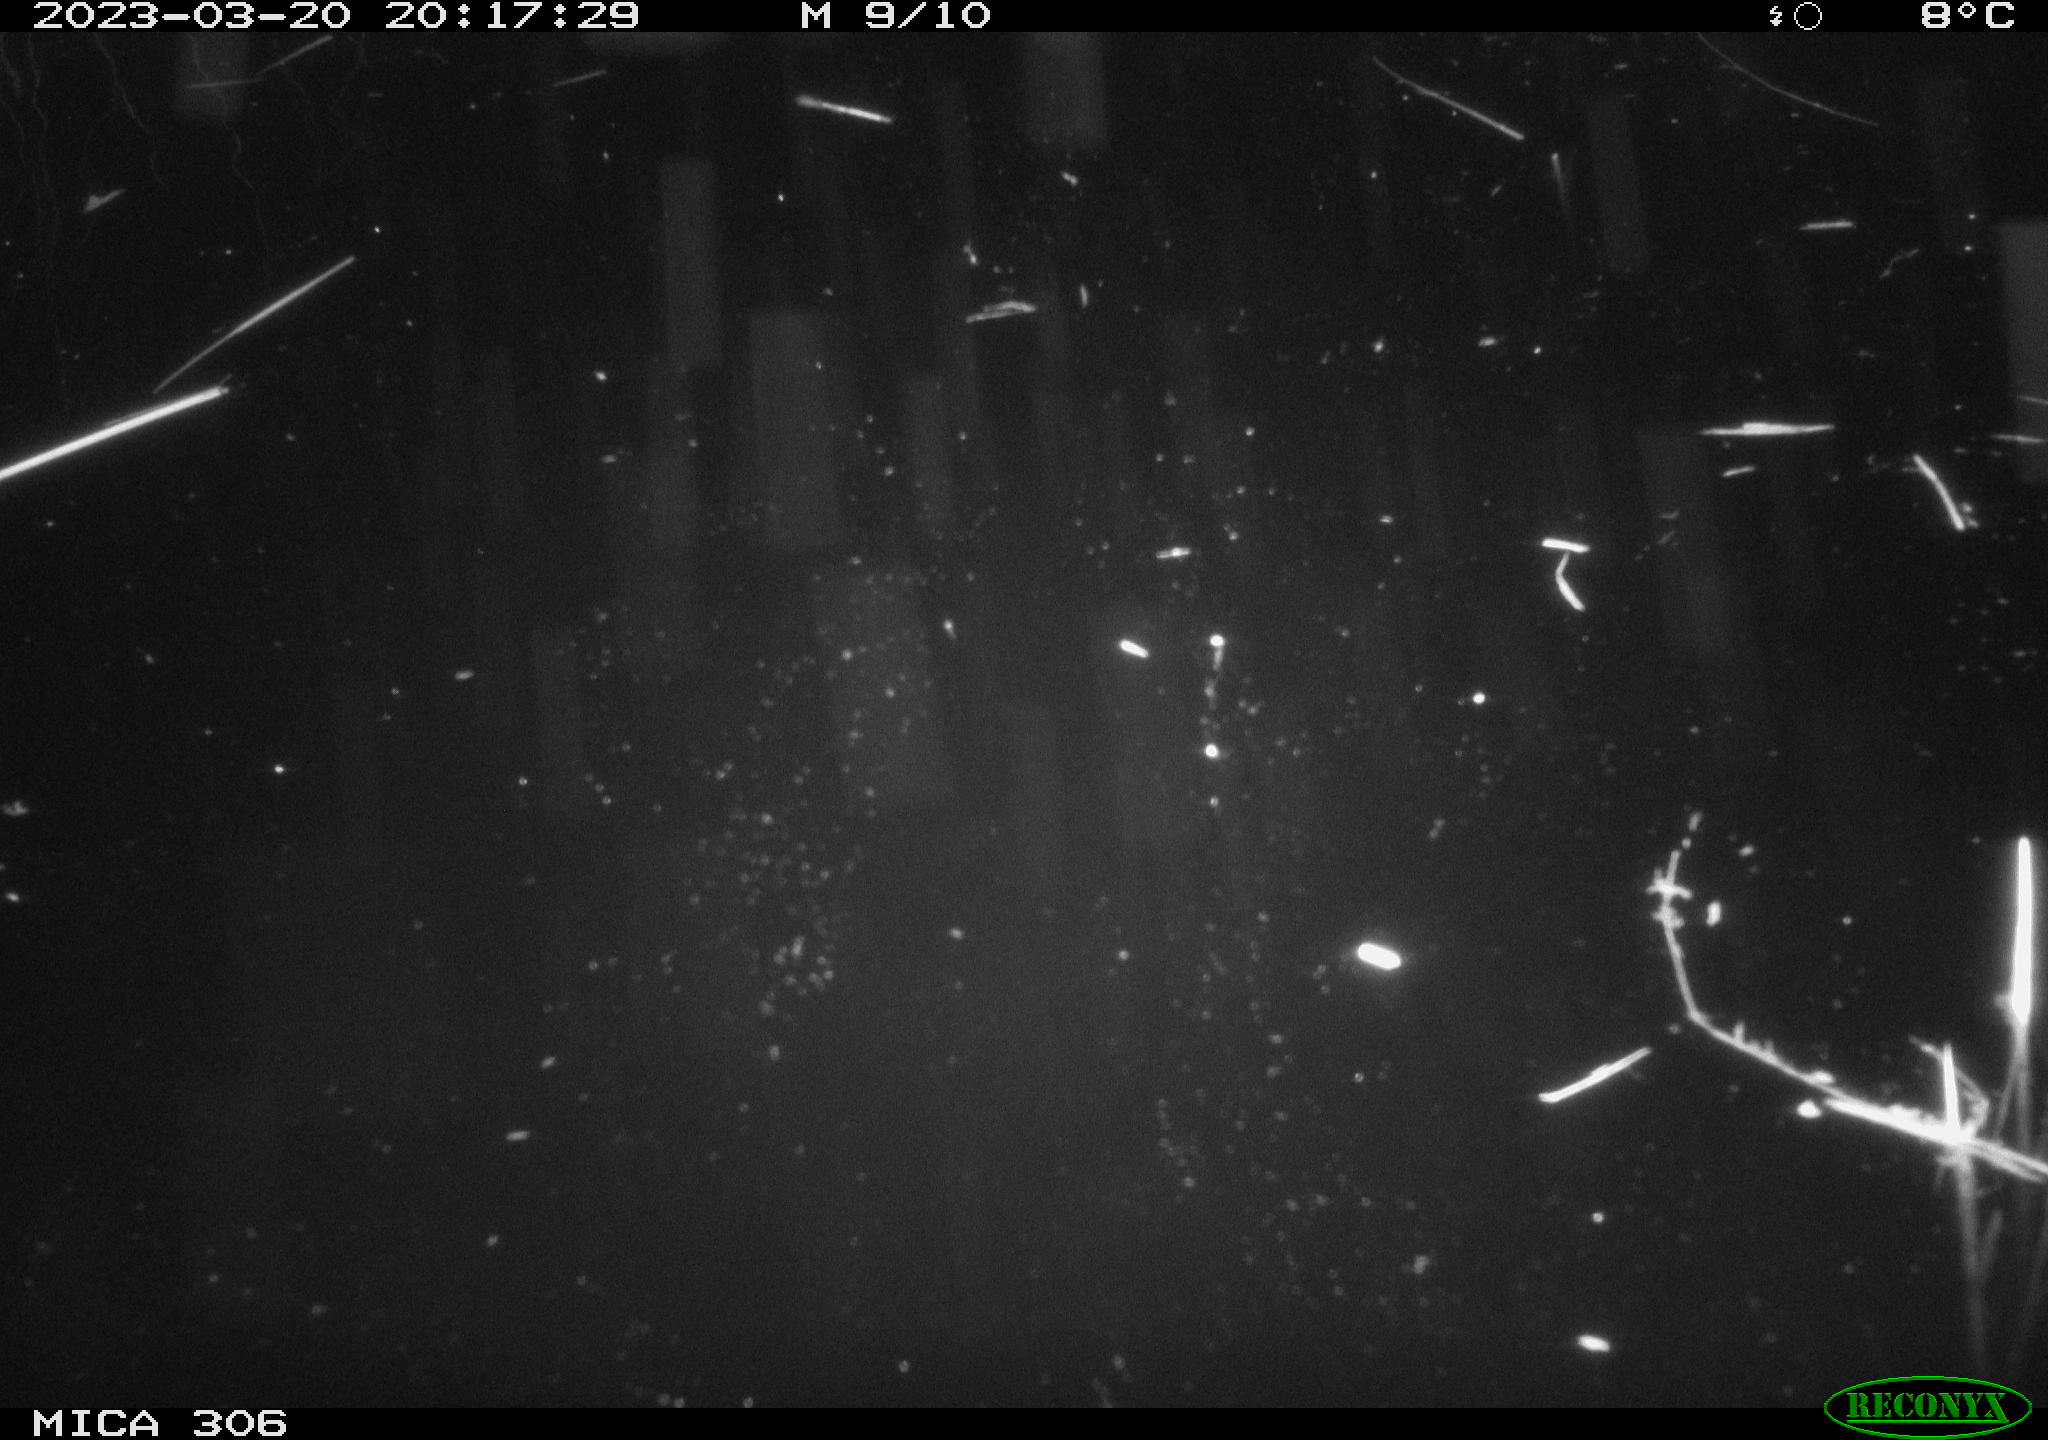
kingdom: Animalia
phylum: Chordata
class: Mammalia
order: Rodentia
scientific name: Rodentia
